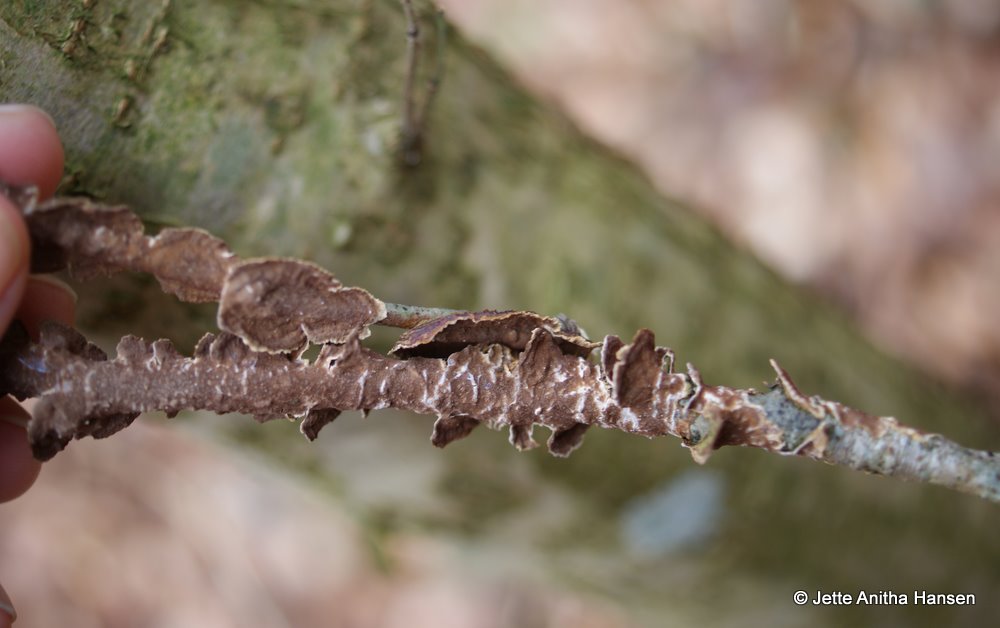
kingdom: Fungi
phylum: Basidiomycota
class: Agaricomycetes
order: Hymenochaetales
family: Hymenochaetaceae
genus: Hydnoporia
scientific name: Hydnoporia tabacina
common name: tobaksbrun ruslædersvamp
